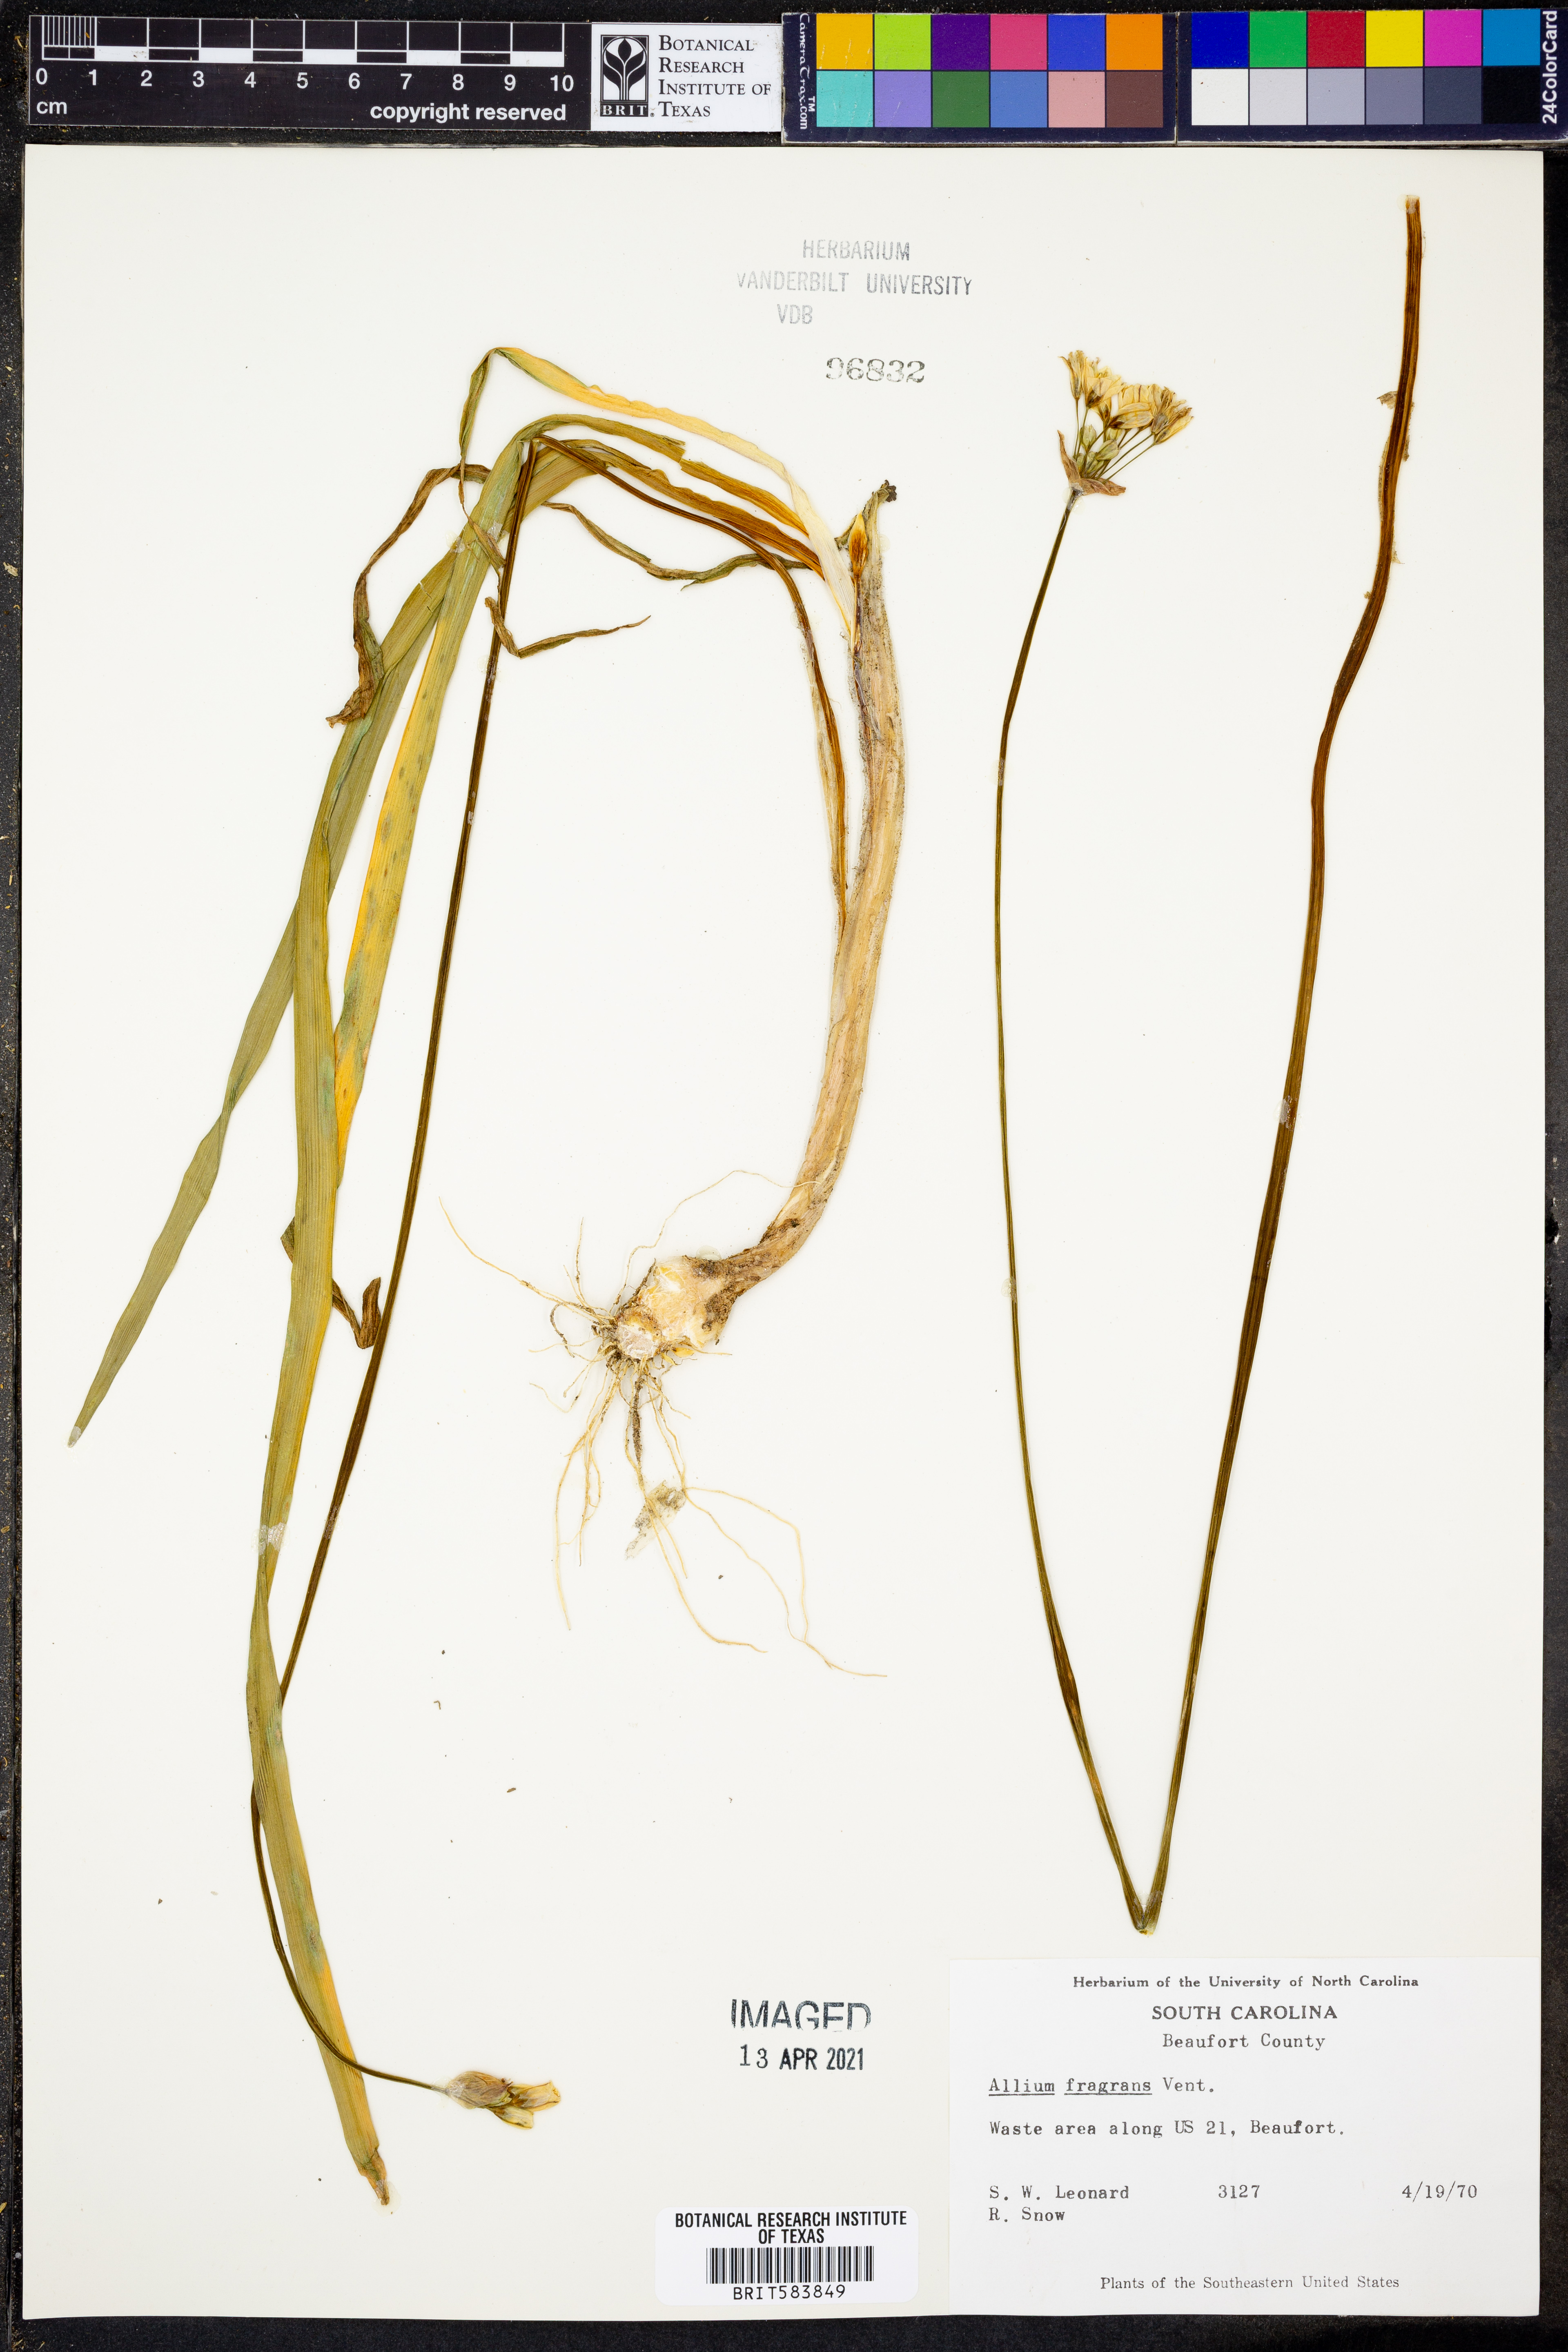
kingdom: Plantae
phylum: Tracheophyta
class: Liliopsida
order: Asparagales
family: Amaryllidaceae
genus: Nothoscordum
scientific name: Nothoscordum borbonicum
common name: Honeybells
